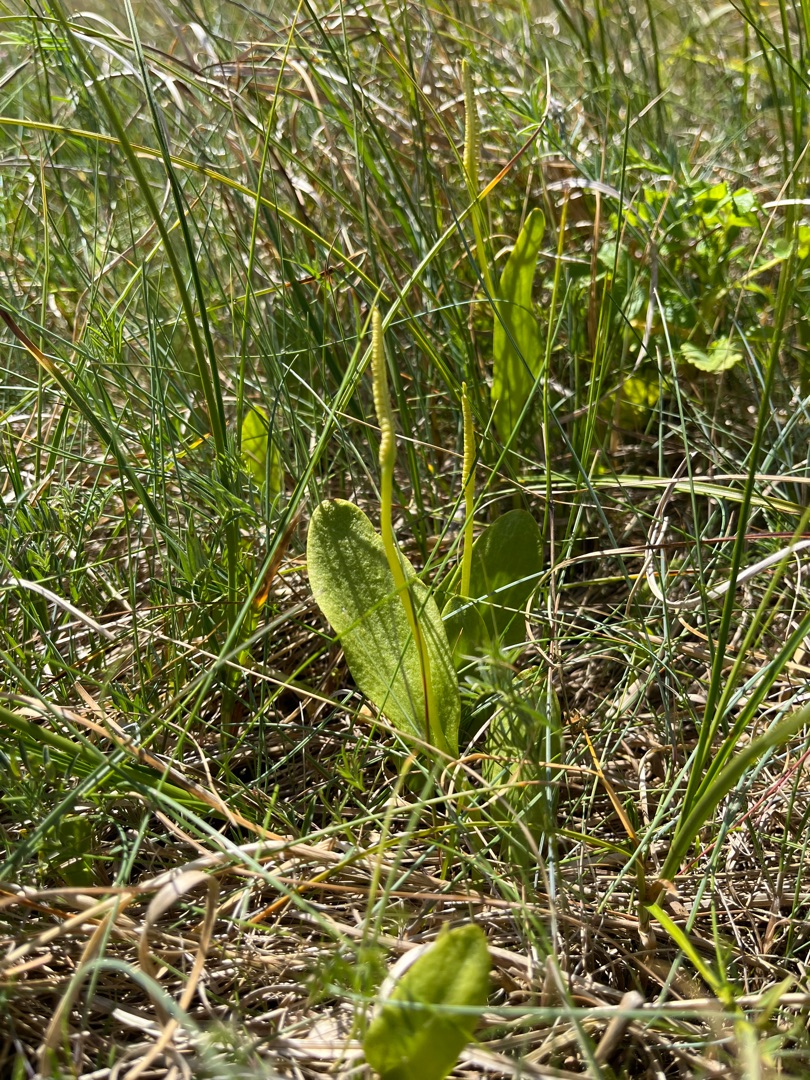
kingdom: Plantae
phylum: Tracheophyta
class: Polypodiopsida
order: Ophioglossales
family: Ophioglossaceae
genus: Ophioglossum
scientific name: Ophioglossum vulgatum
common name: Slangetunge
